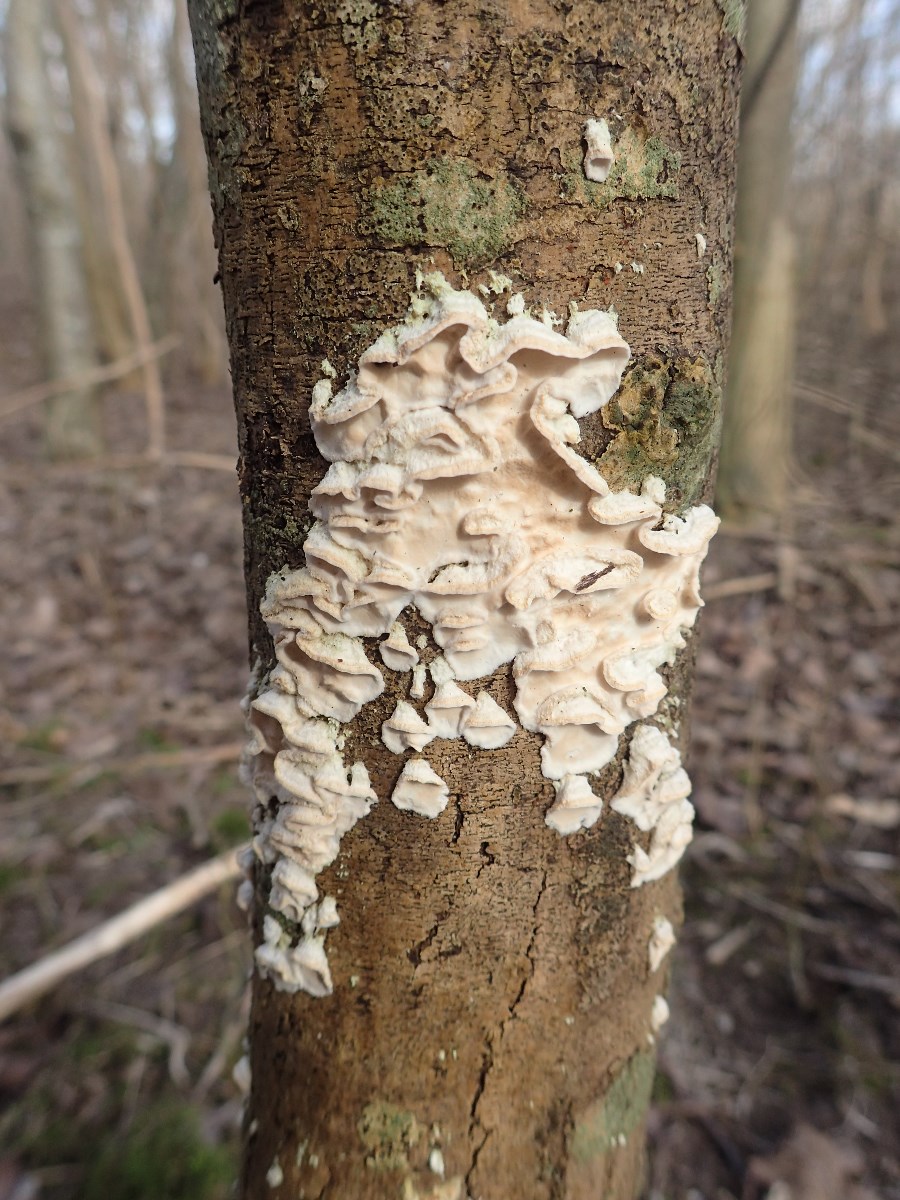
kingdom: Fungi
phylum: Basidiomycota
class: Agaricomycetes
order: Polyporales
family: Irpicaceae
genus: Byssomerulius
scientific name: Byssomerulius corium
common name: læder-åresvamp
